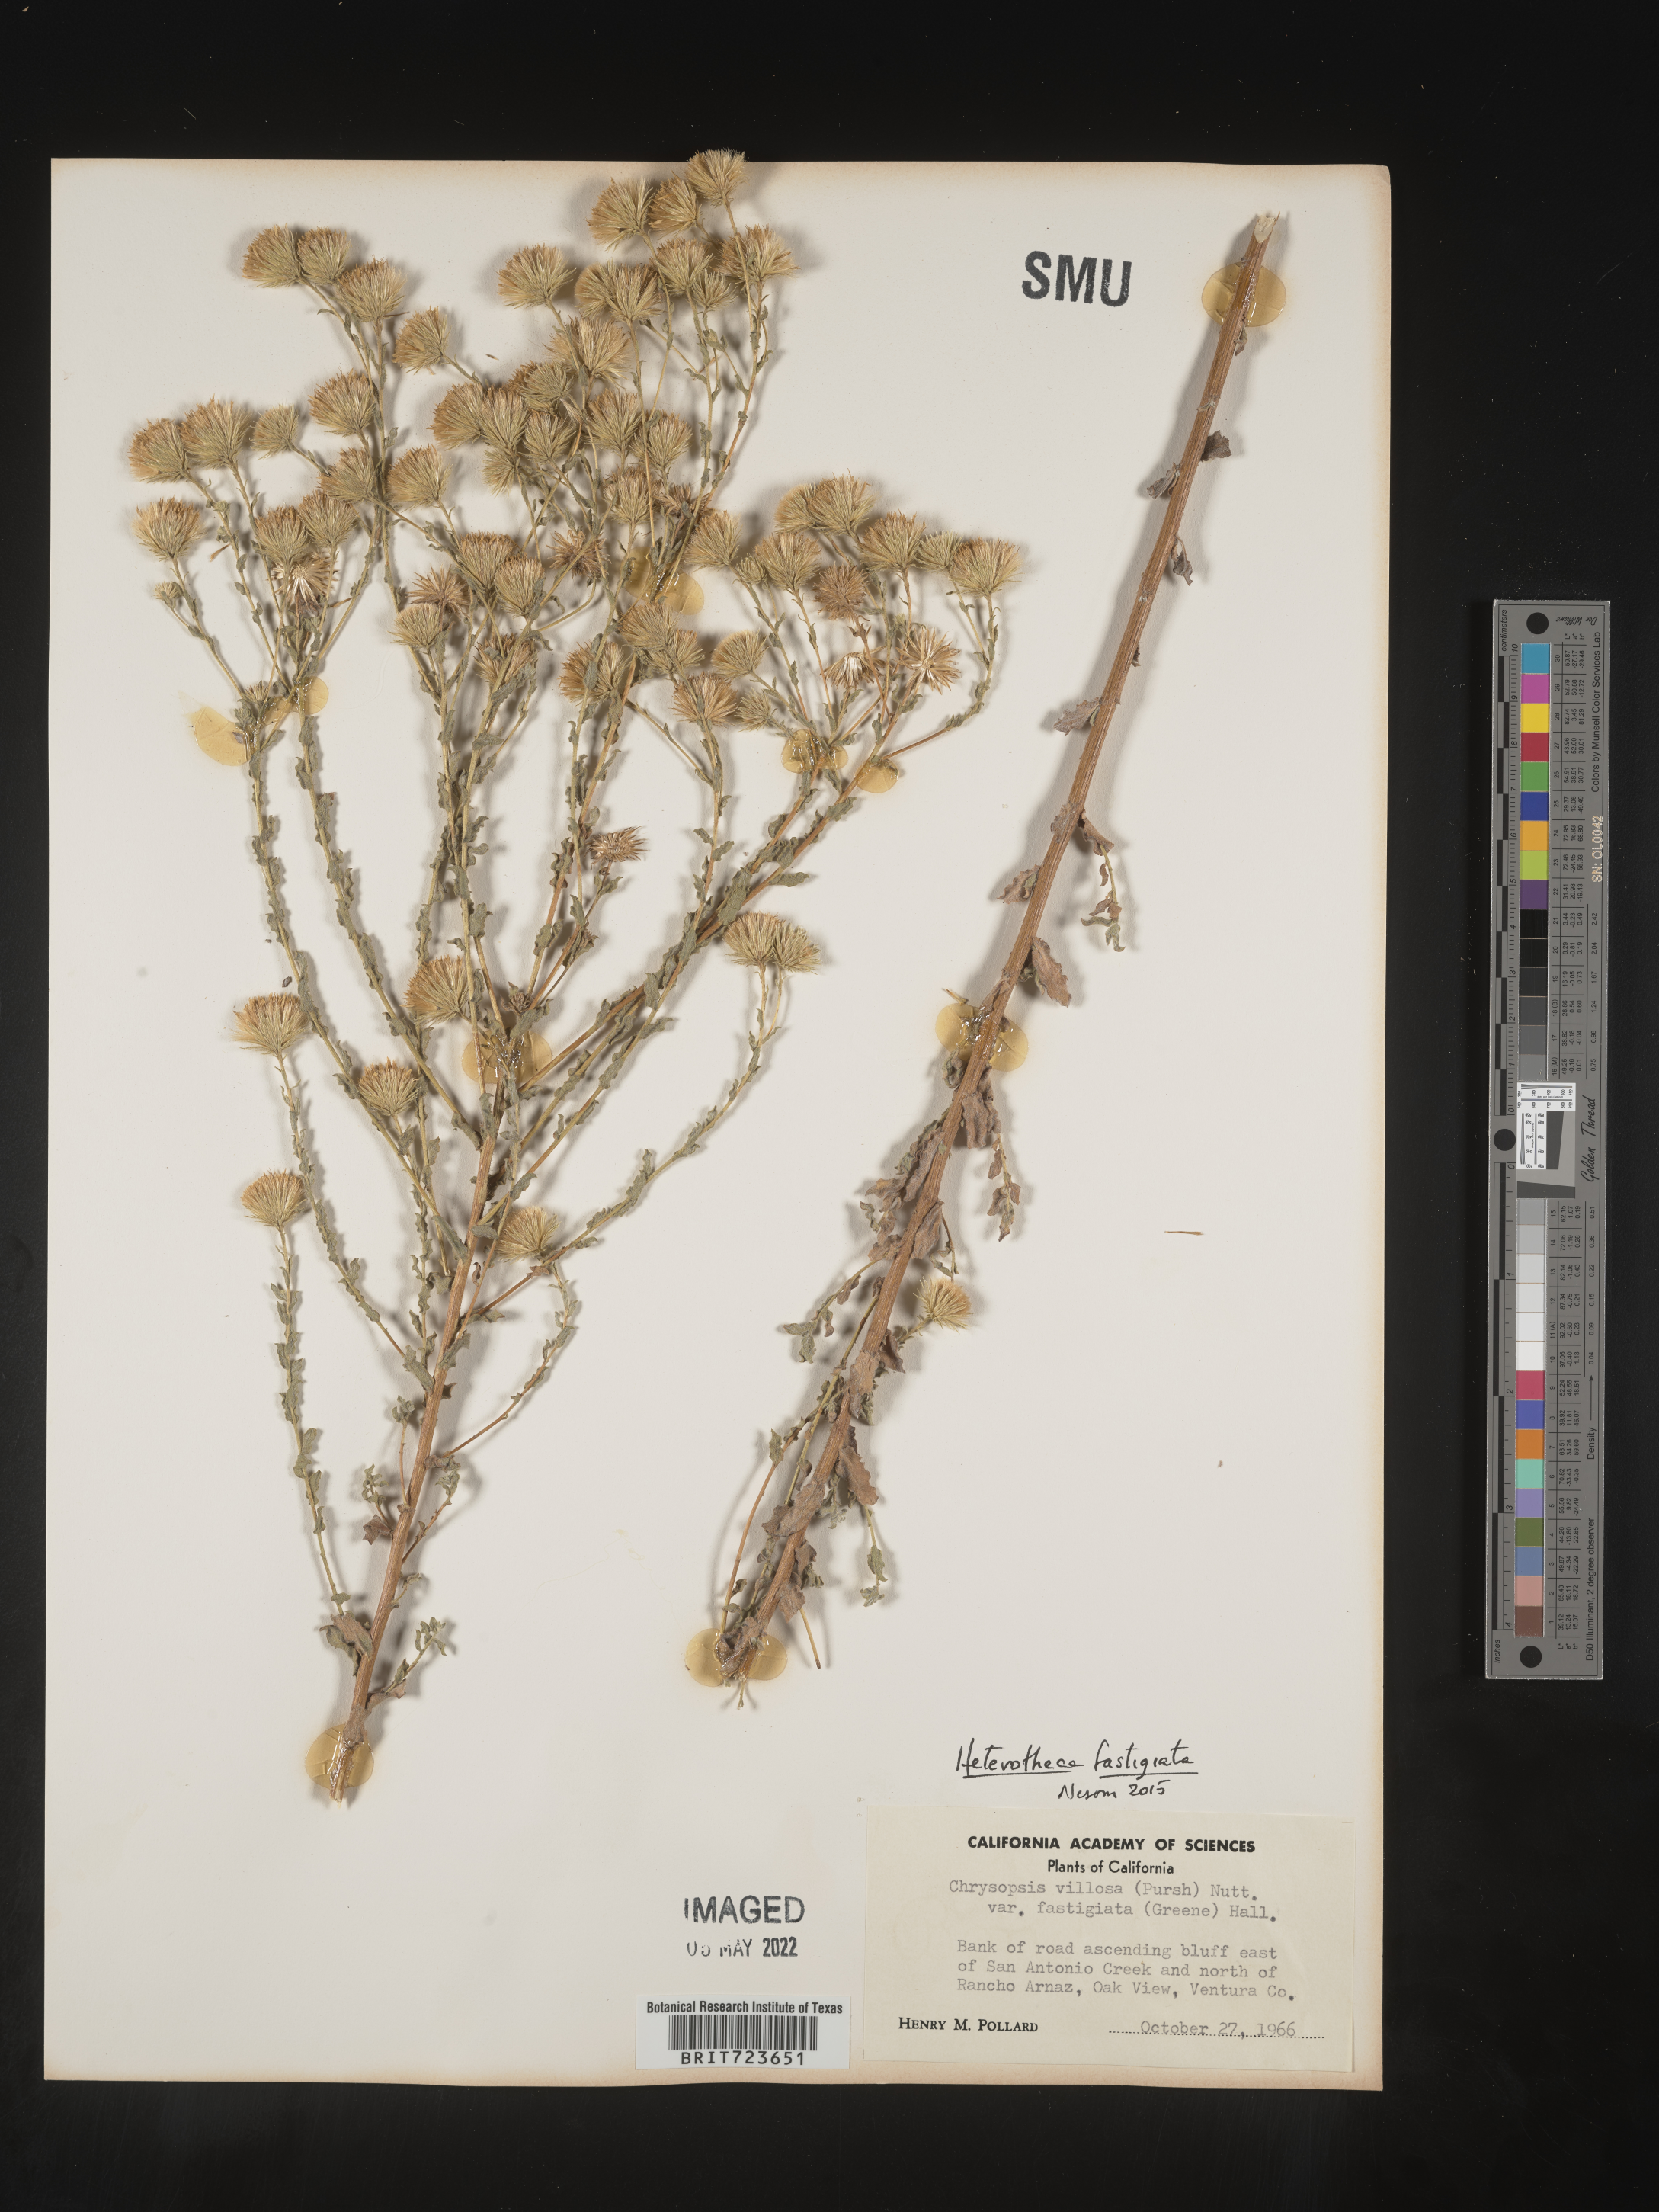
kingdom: Plantae
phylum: Tracheophyta
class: Magnoliopsida
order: Asterales
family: Asteraceae
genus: Heterotheca
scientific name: Heterotheca fastigiata
